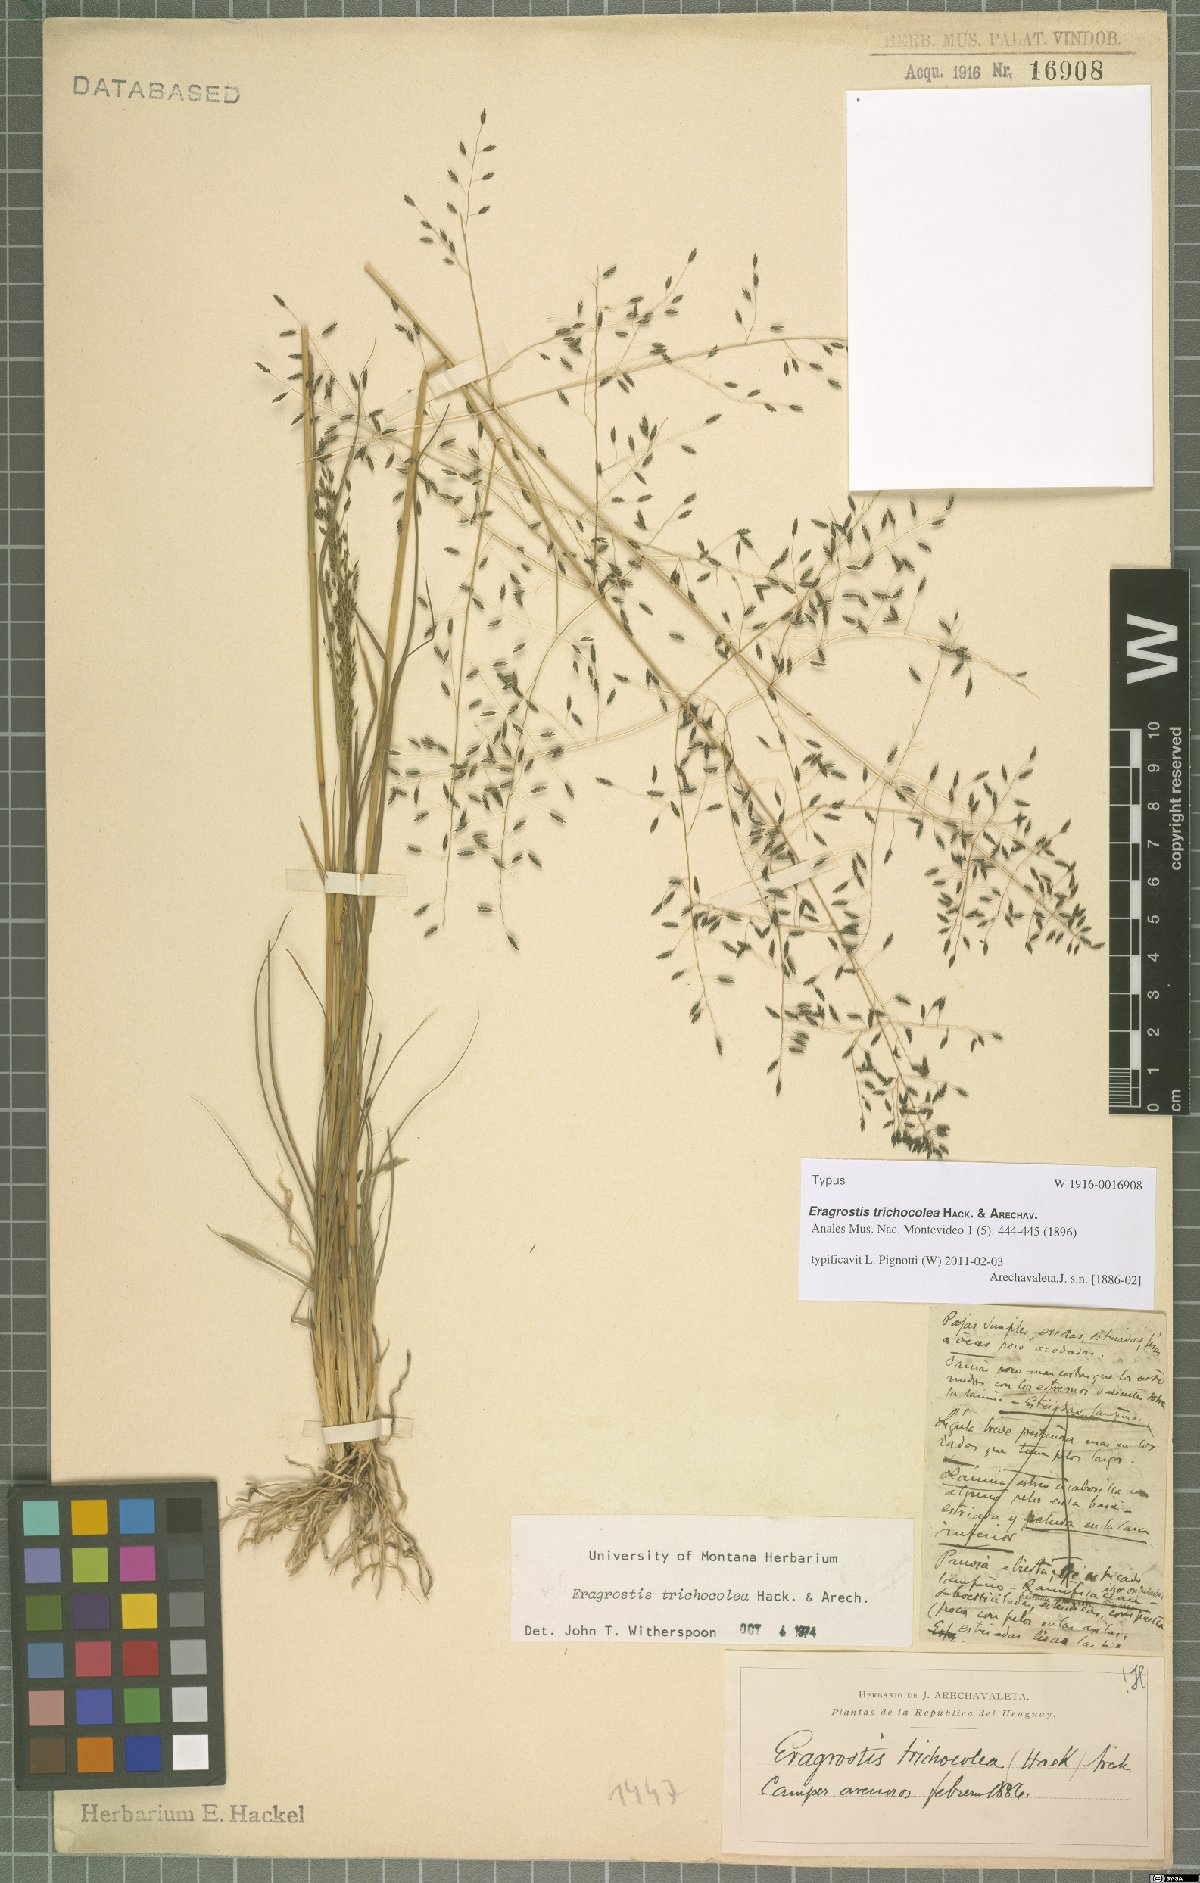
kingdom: Plantae
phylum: Tracheophyta
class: Liliopsida
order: Poales
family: Poaceae
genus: Eragrostis
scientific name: Eragrostis trichocolea
